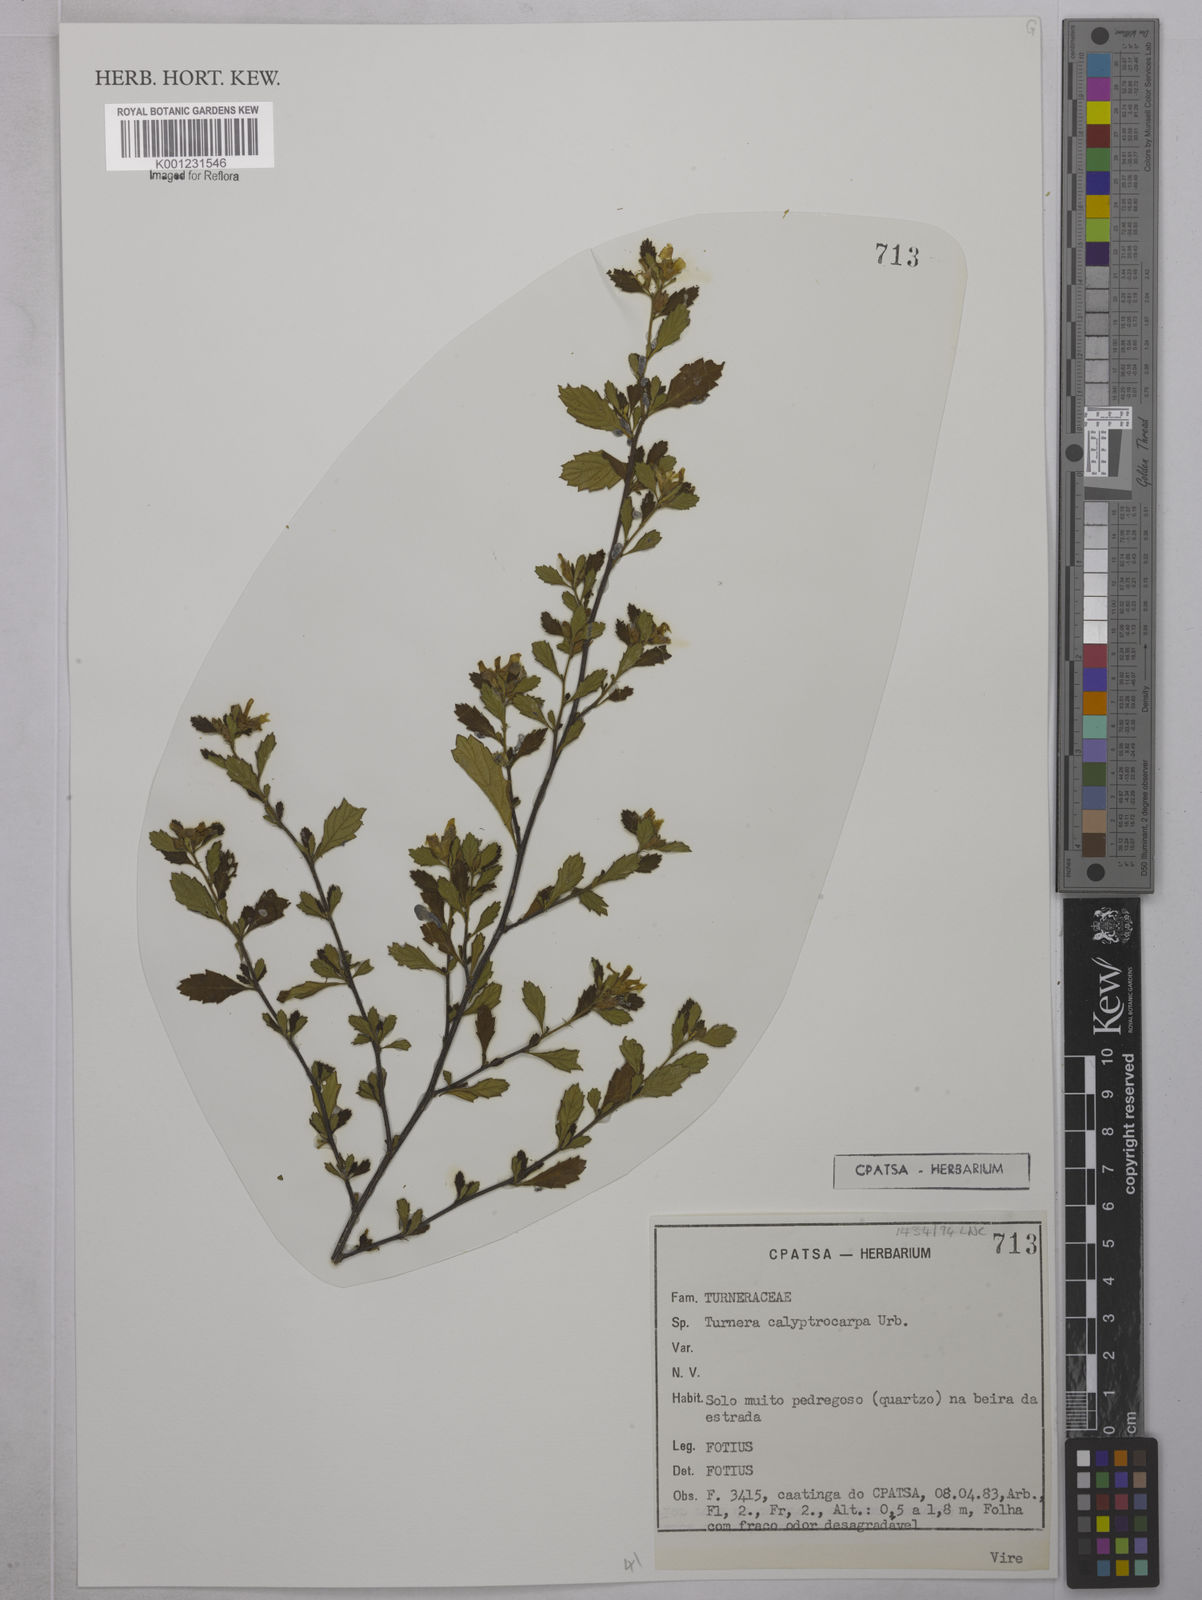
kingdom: Plantae
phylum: Tracheophyta
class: Magnoliopsida
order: Malpighiales
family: Turneraceae
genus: Oxossia
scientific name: Oxossia calyptrocarpa
